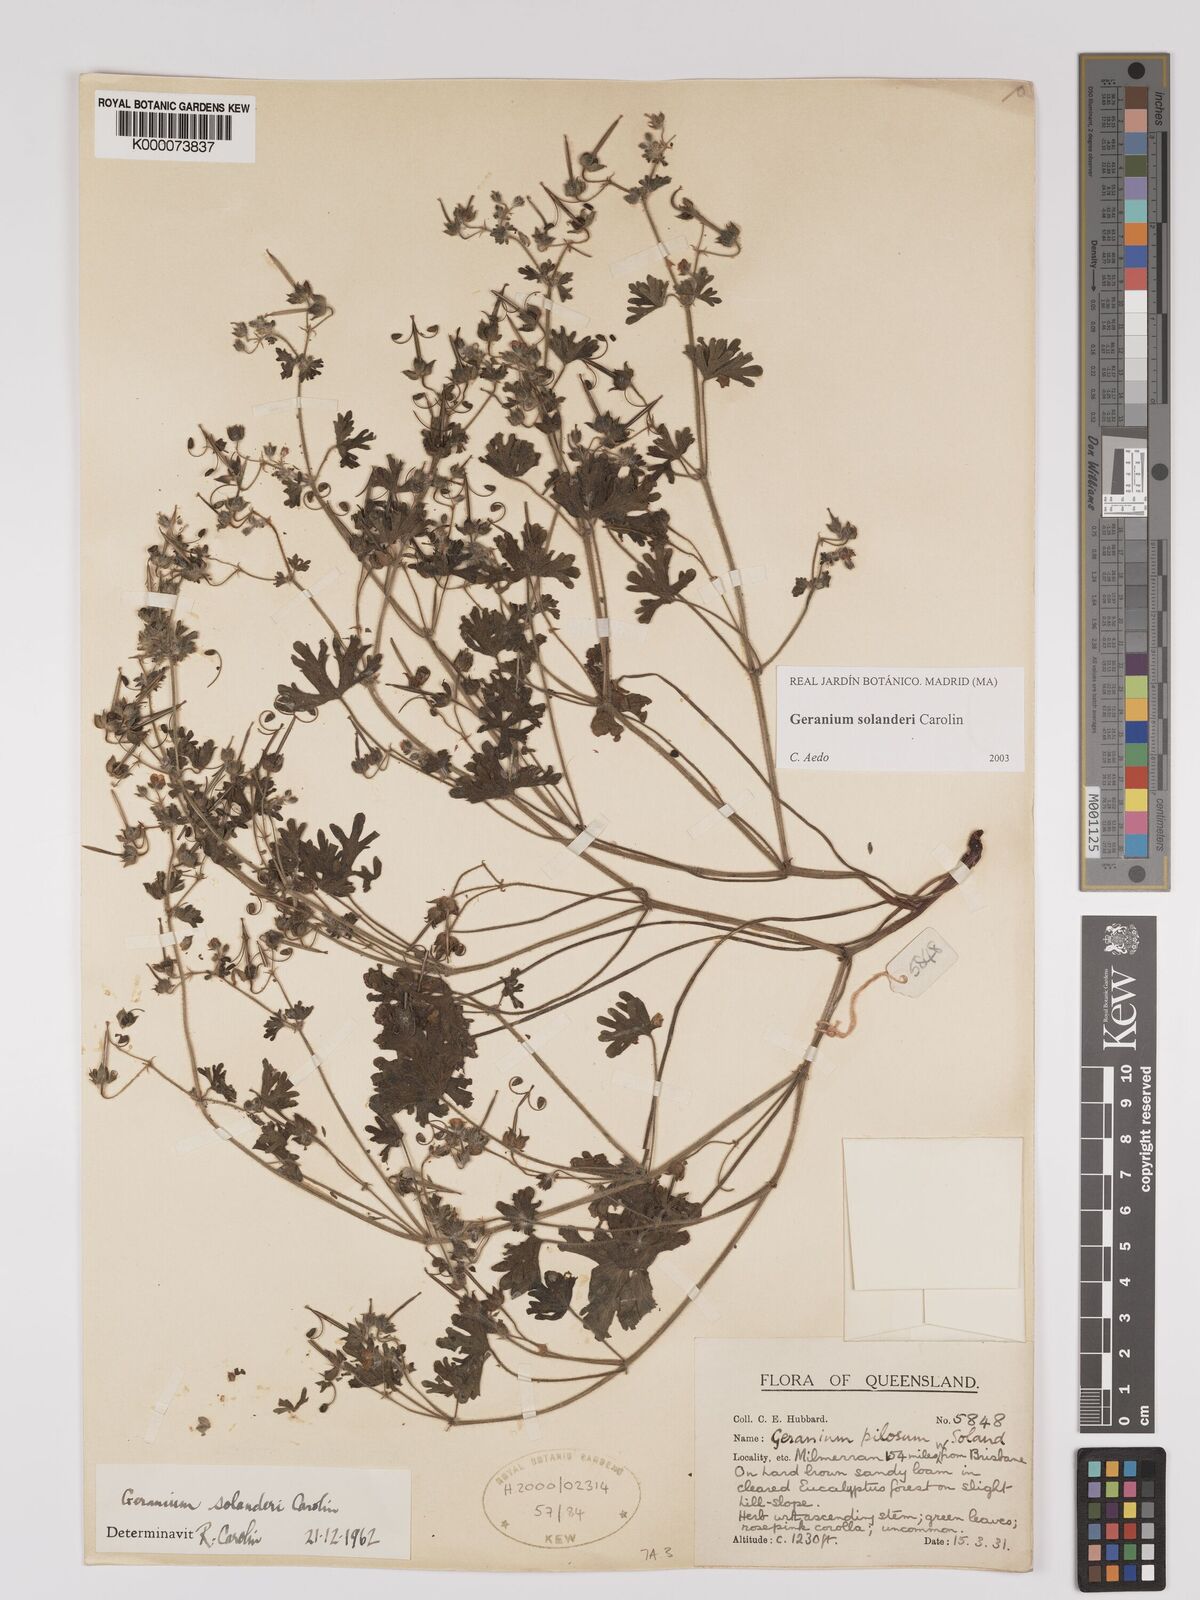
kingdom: Plantae
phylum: Tracheophyta
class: Magnoliopsida
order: Geraniales
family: Geraniaceae
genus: Geranium
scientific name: Geranium solanderi
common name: Solander's geranium
